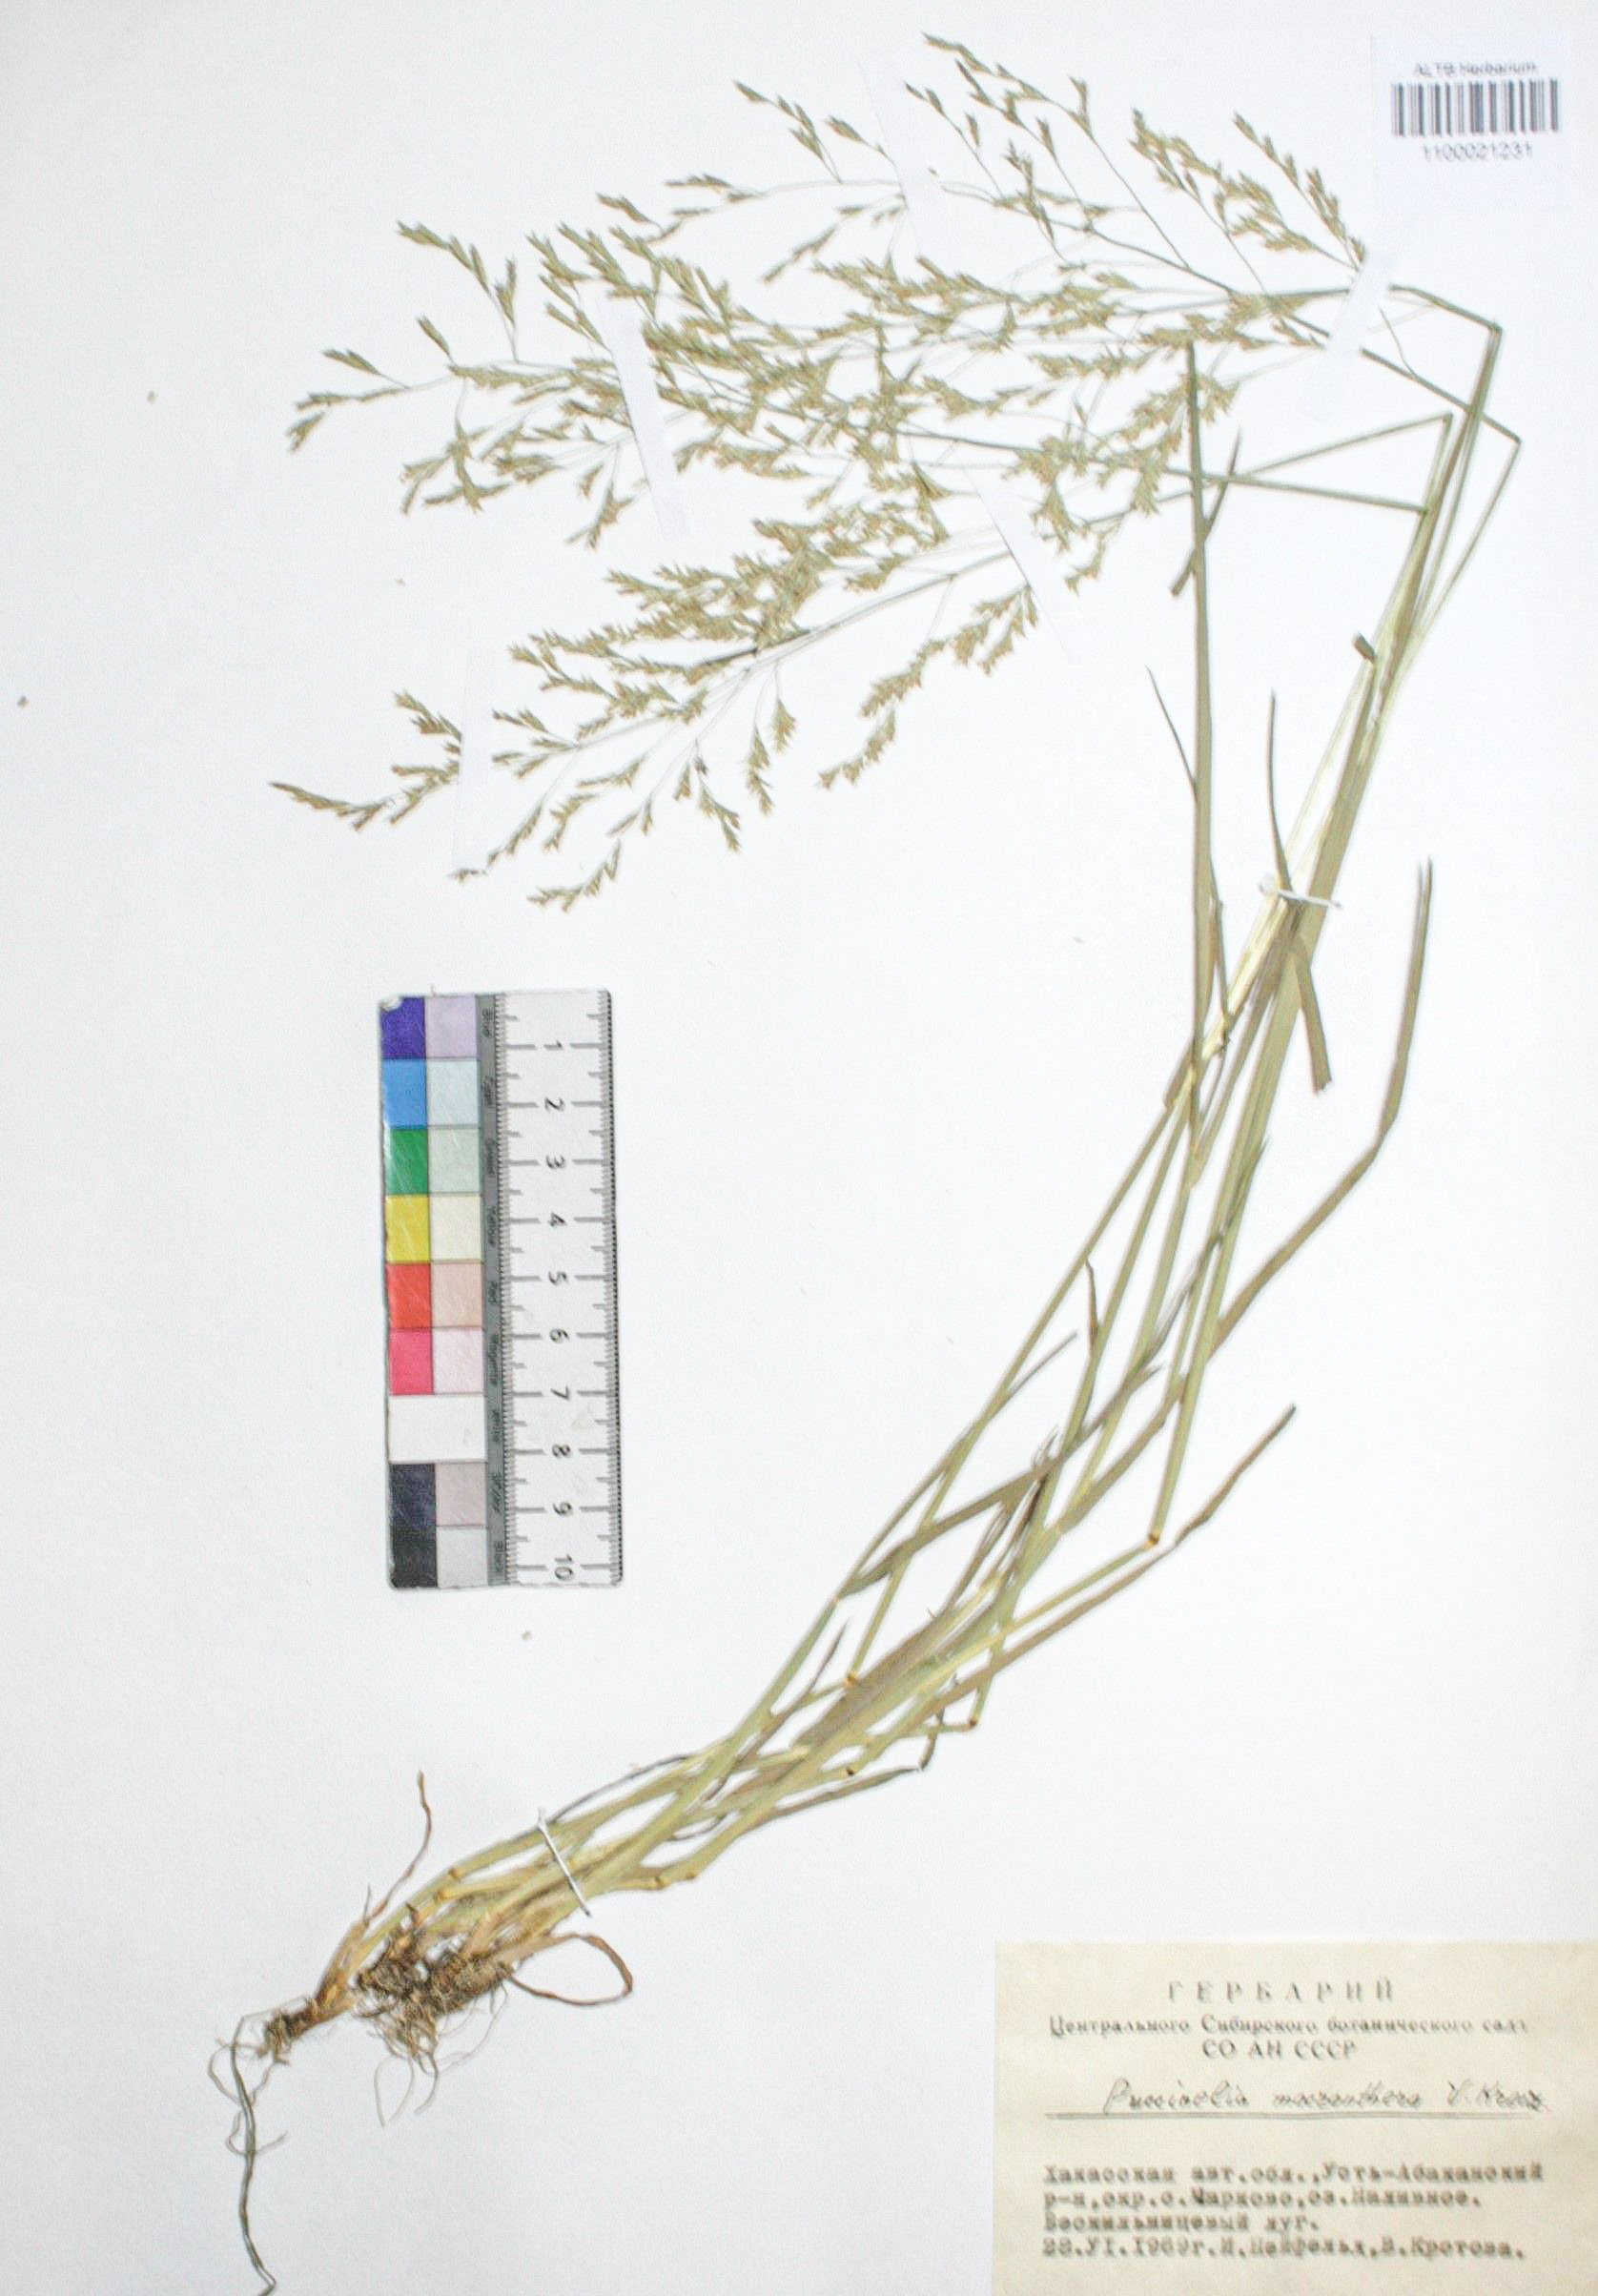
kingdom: Plantae
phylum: Tracheophyta
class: Liliopsida
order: Poales
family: Poaceae
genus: Puccinellia
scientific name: Puccinellia macranthera
